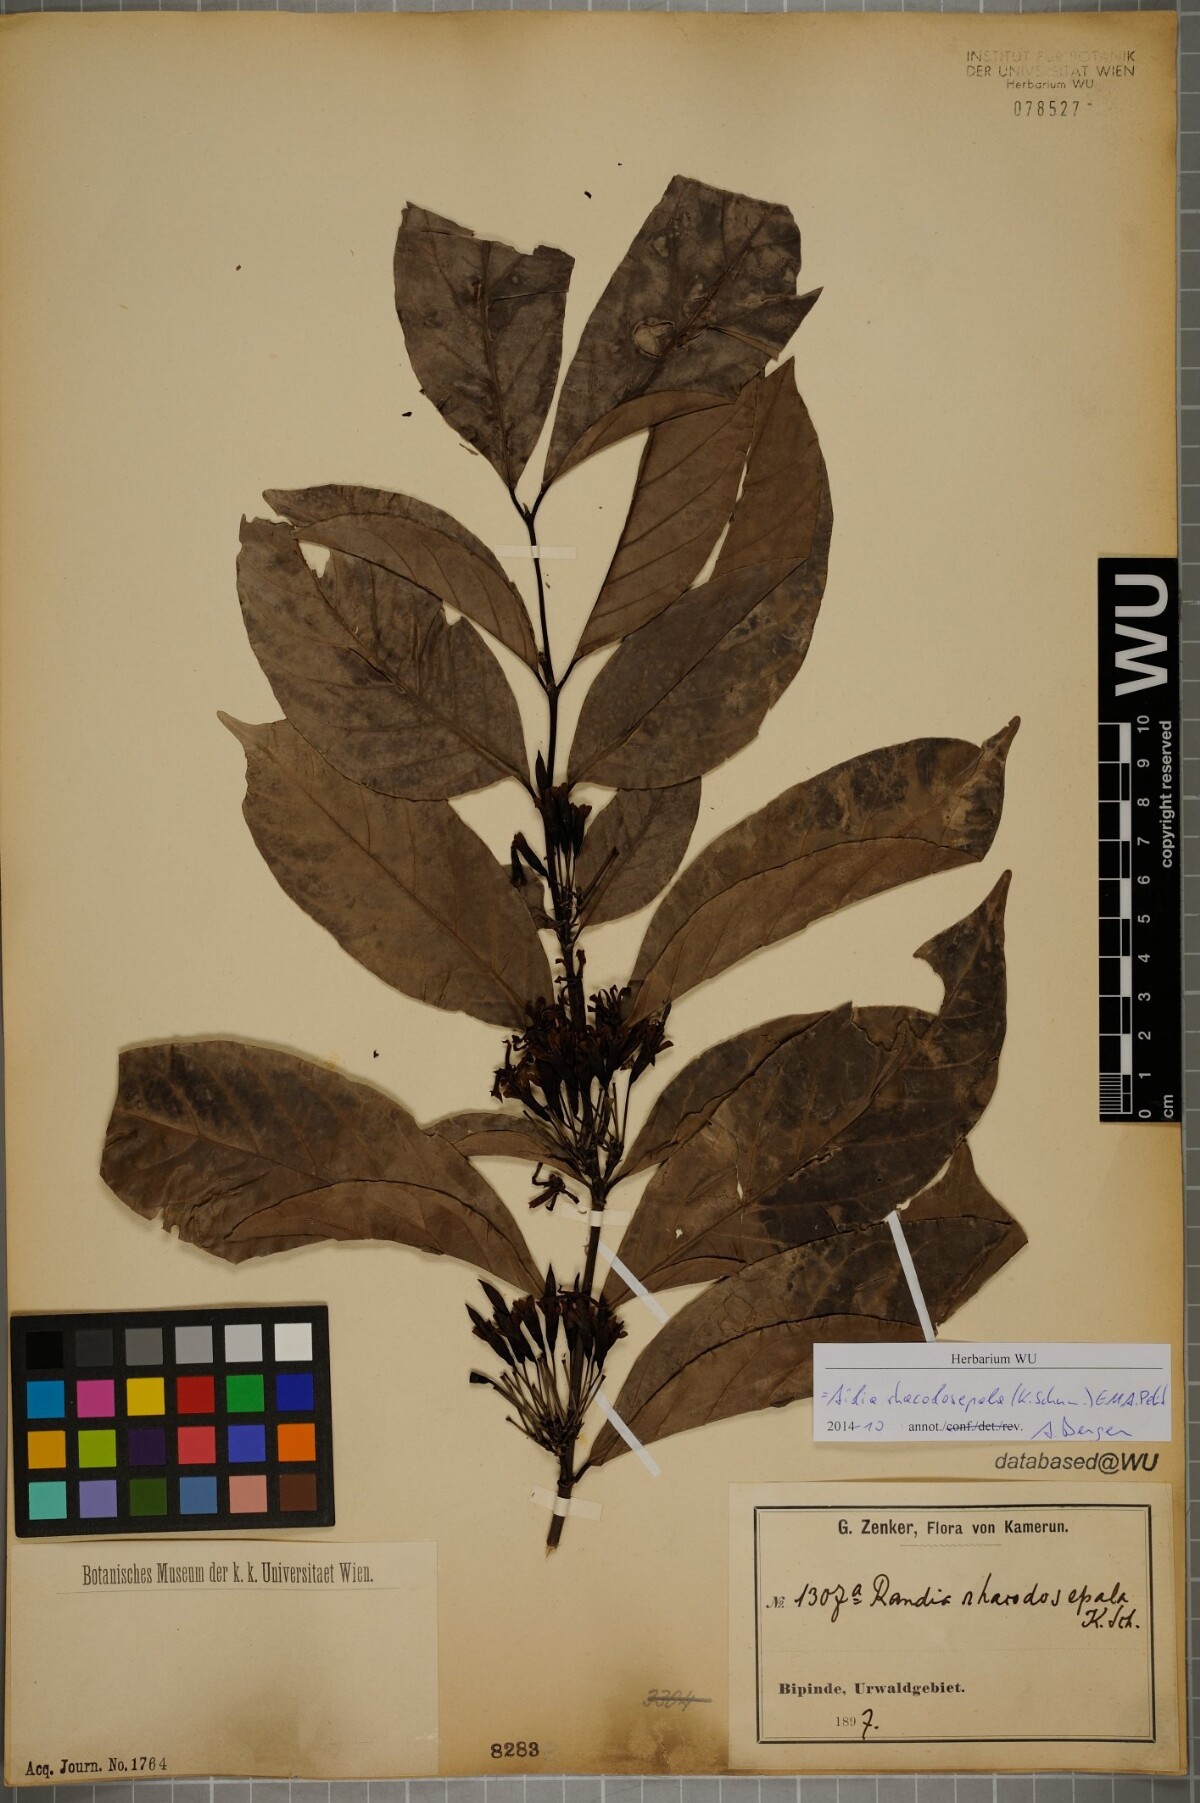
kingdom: Plantae
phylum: Tracheophyta
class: Magnoliopsida
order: Gentianales
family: Rubiaceae
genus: Aidia
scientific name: Aidia rhacodosepala
